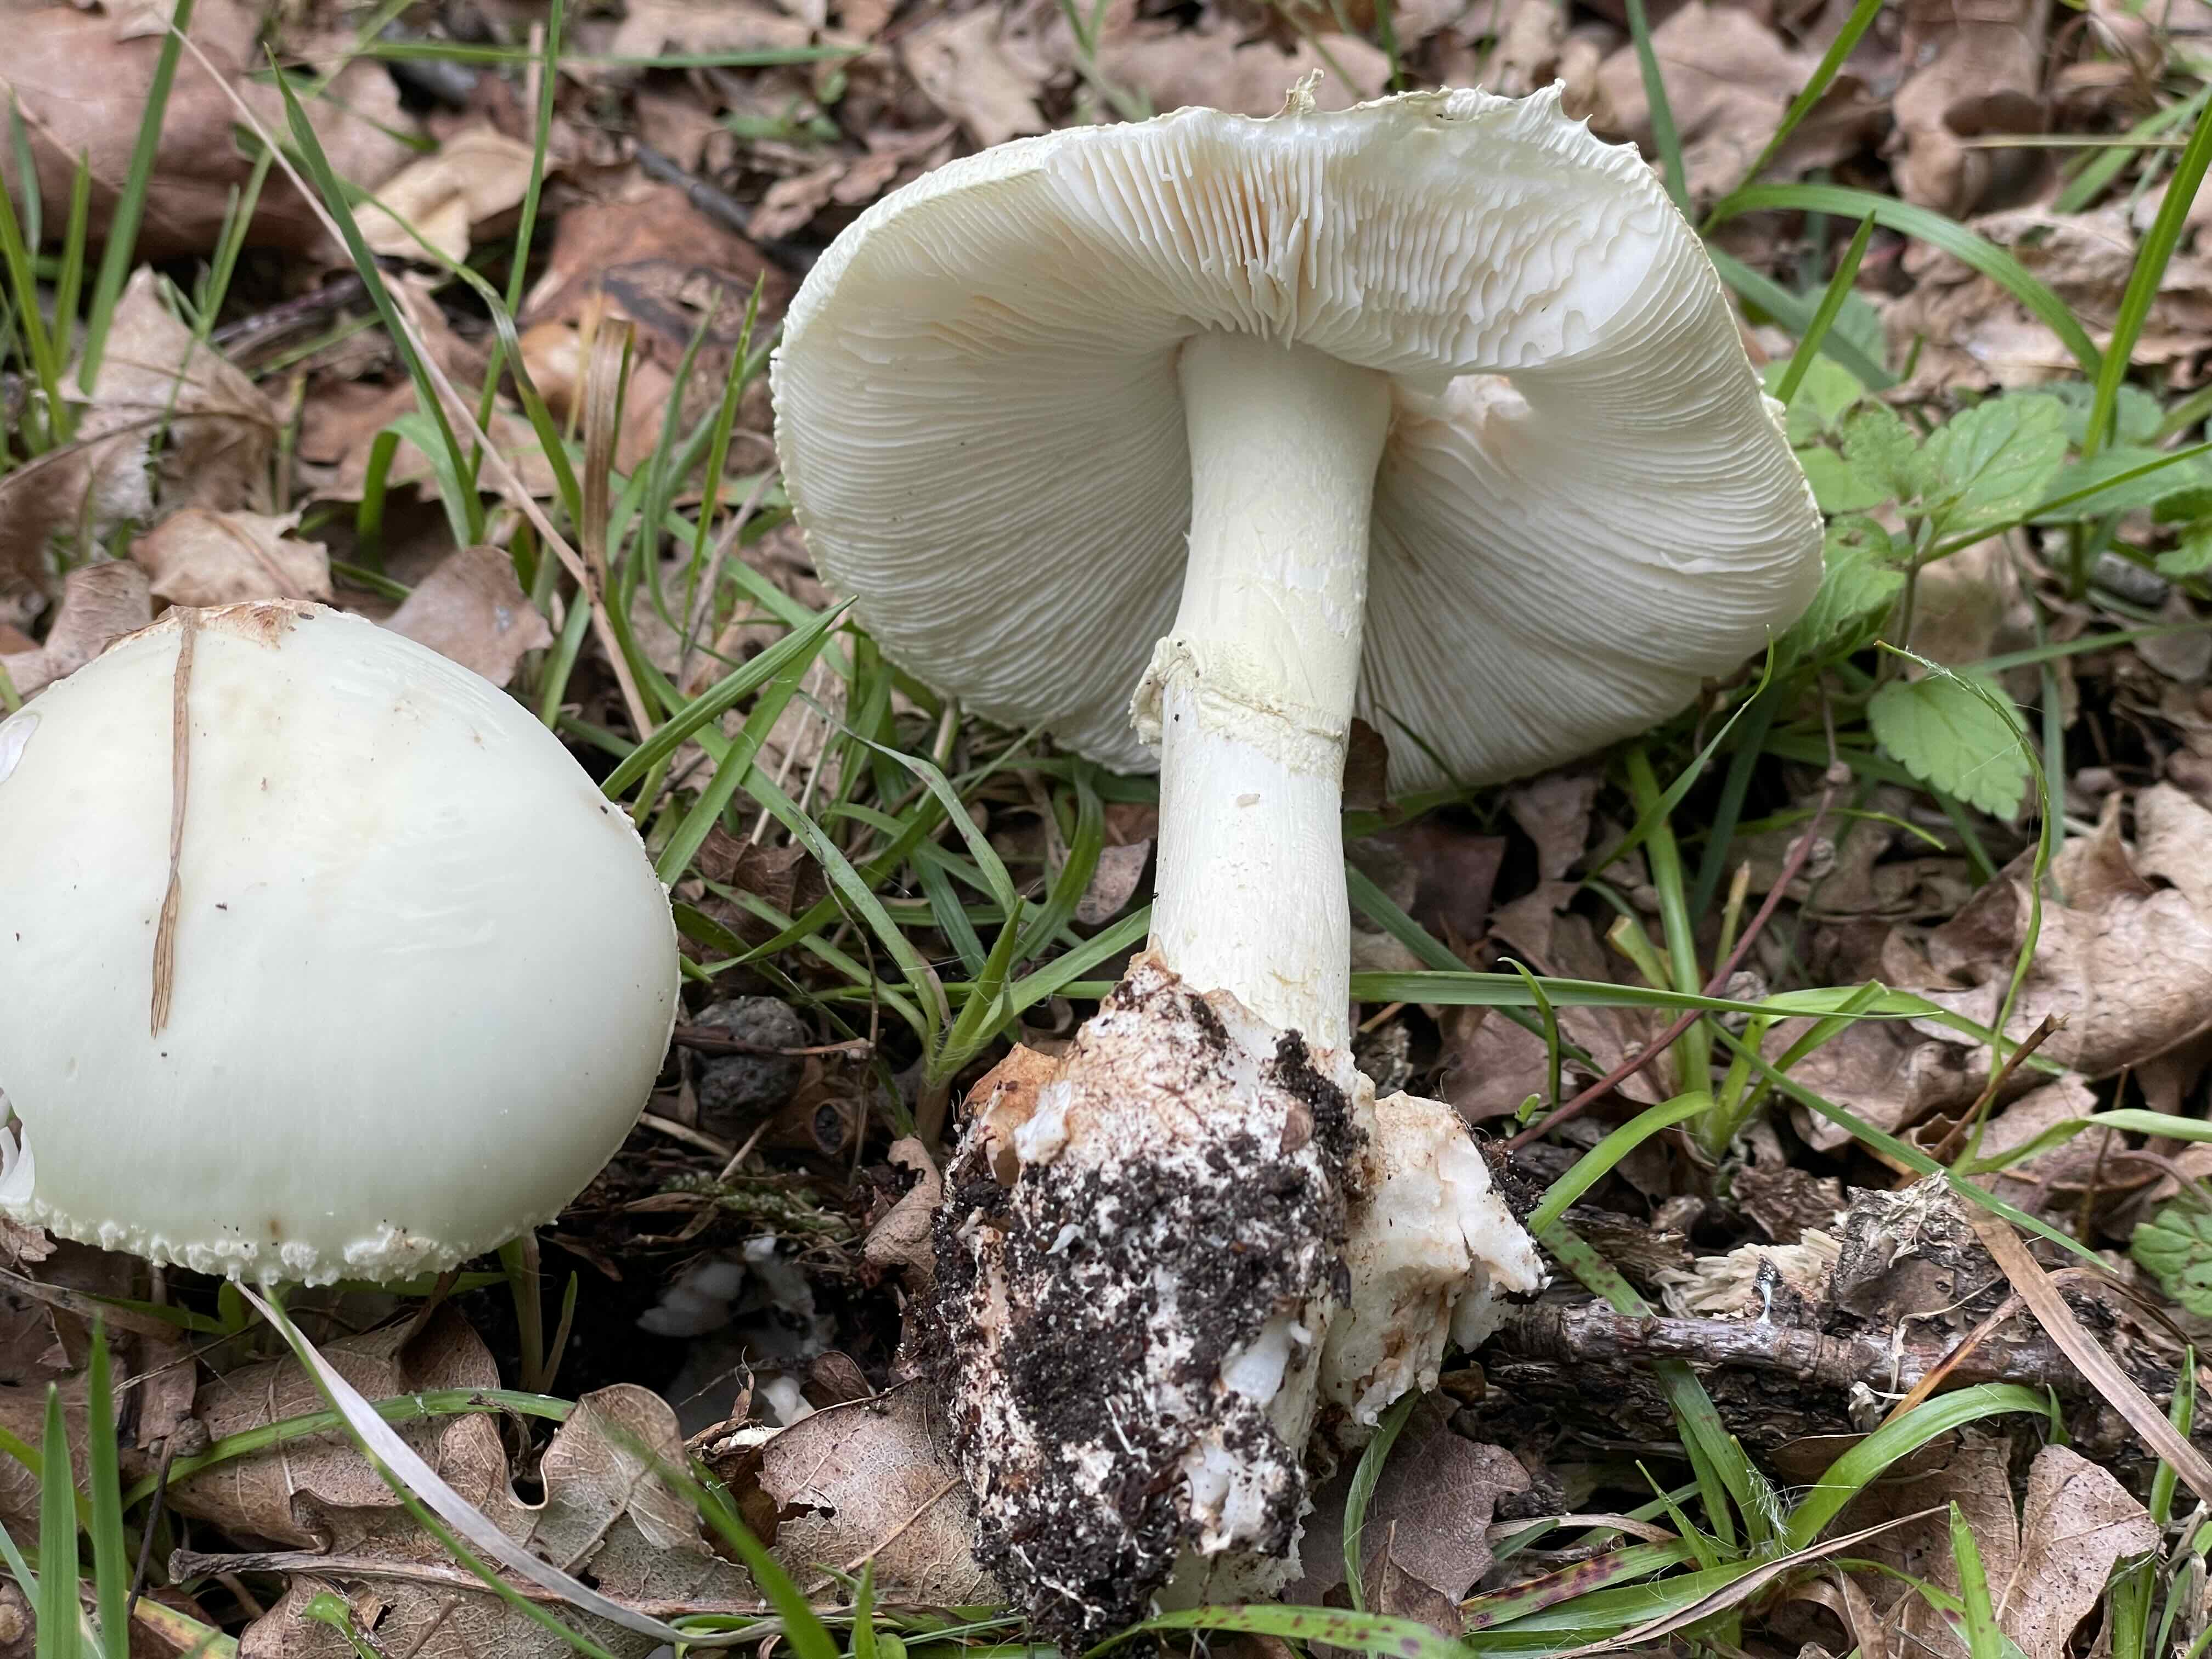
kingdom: Fungi
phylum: Basidiomycota
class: Agaricomycetes
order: Agaricales
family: Amanitaceae
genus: Amanita
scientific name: Amanita citrina
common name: kugleknoldet fluesvamp
